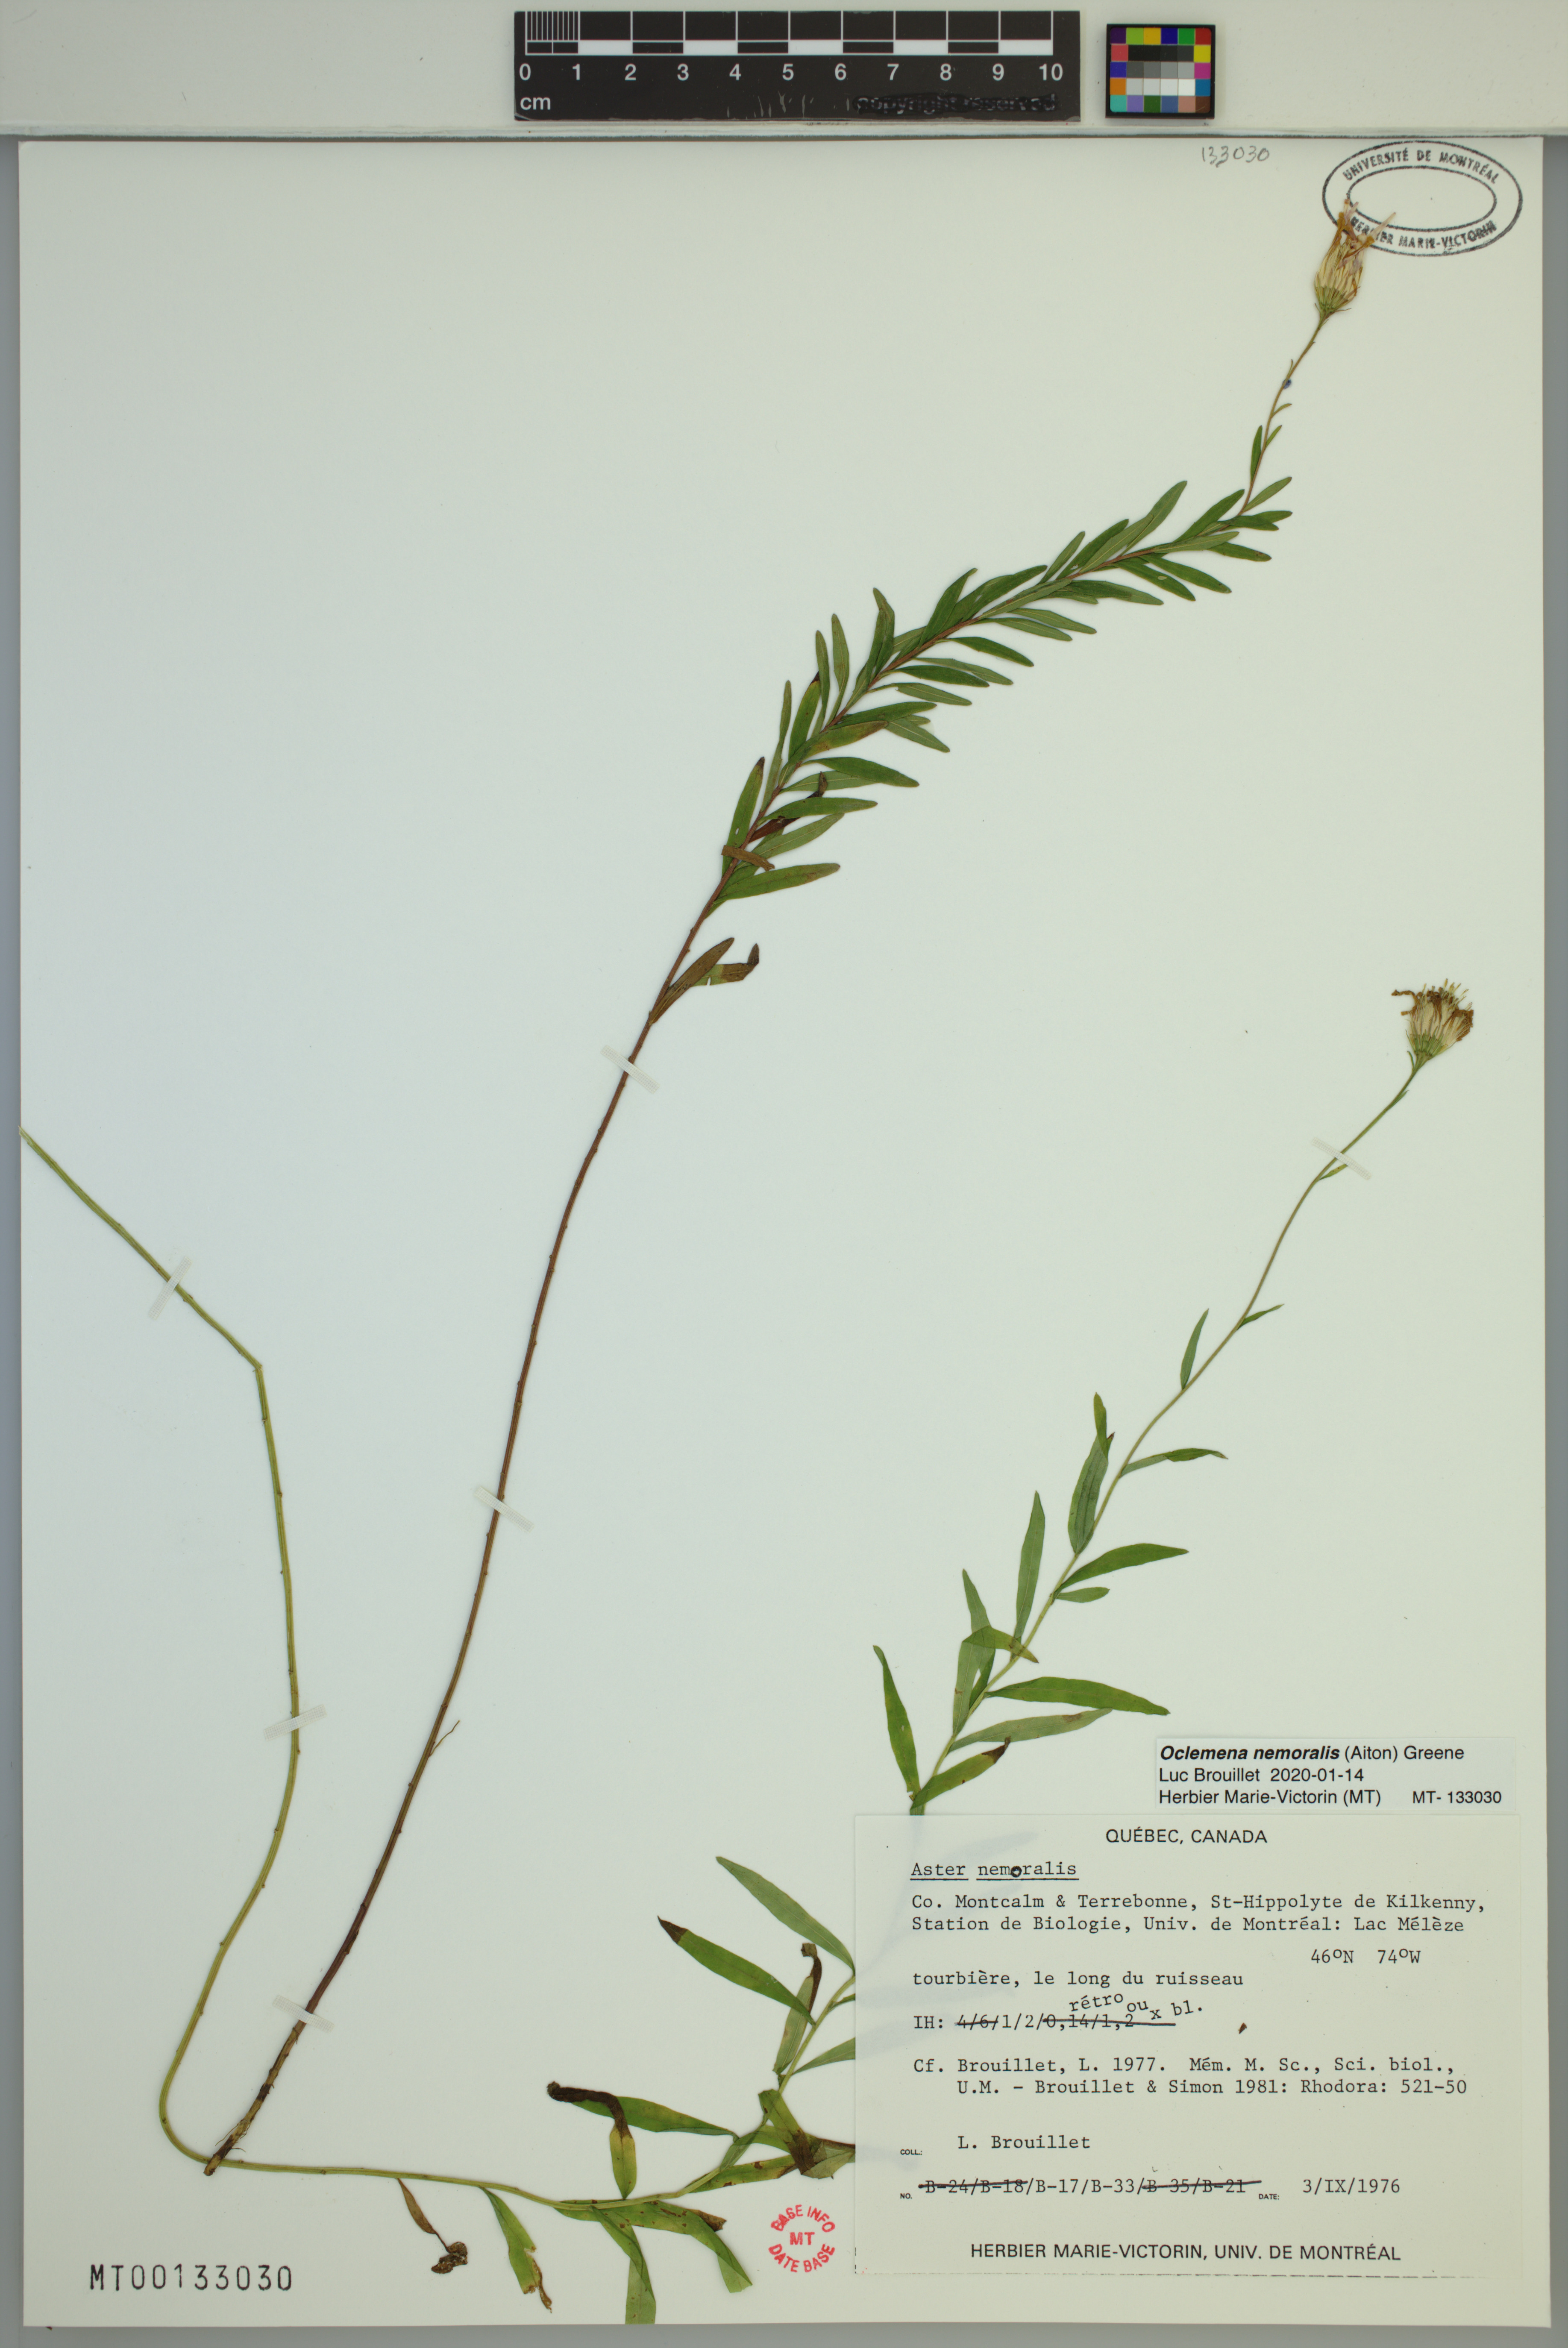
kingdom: Plantae
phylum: Tracheophyta
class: Magnoliopsida
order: Asterales
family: Asteraceae
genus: Oclemena
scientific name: Oclemena nemoralis
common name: Bog aster
